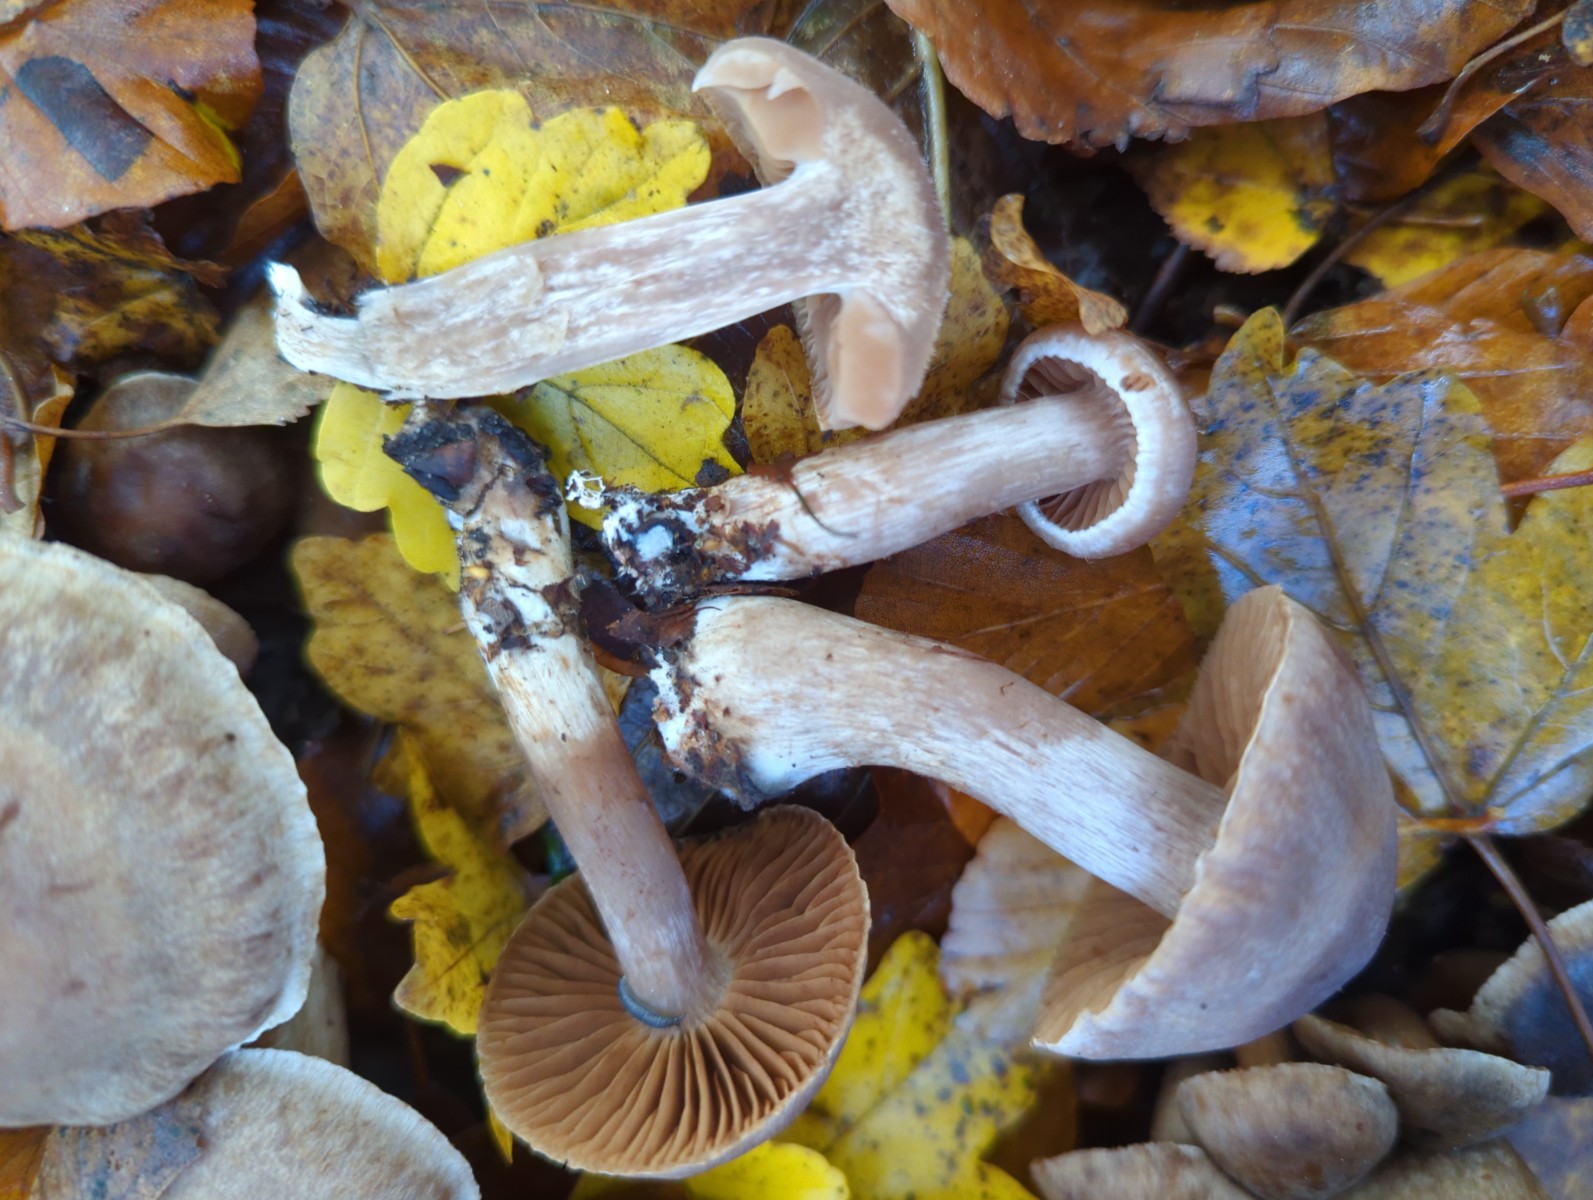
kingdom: Fungi
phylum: Basidiomycota
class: Agaricomycetes
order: Agaricales
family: Cortinariaceae
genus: Cortinarius
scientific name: Cortinarius
